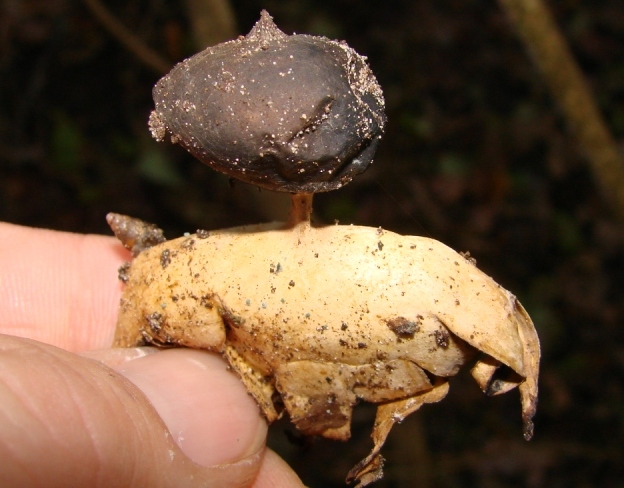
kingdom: Fungi
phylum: Basidiomycota
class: Agaricomycetes
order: Geastrales
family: Geastraceae
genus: Geastrum
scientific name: Geastrum pectinatum
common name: stilket stjernebold
